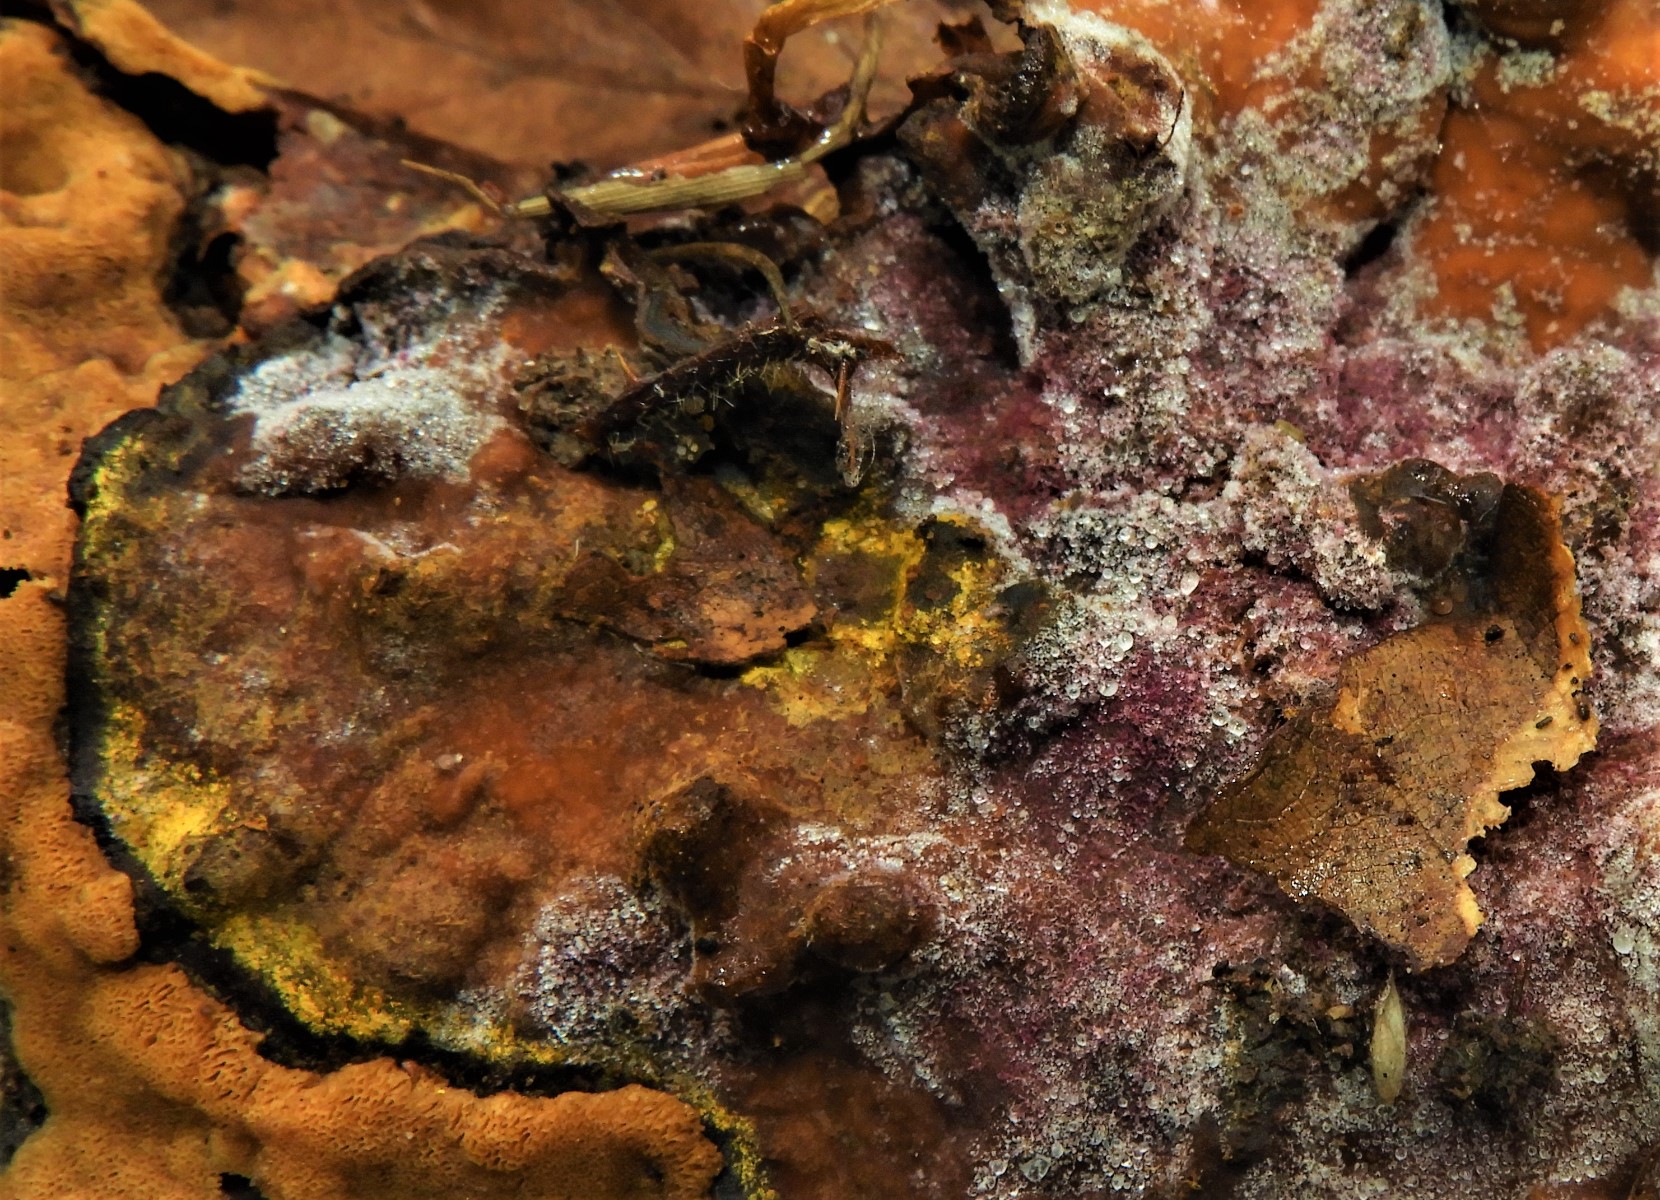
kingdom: Fungi
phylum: Ascomycota
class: Sordariomycetes
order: Hypocreales
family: Hypocreaceae
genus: Sphaerostilbella
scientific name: Sphaerostilbella berkeleyana
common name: grårosa snylteskorpe
